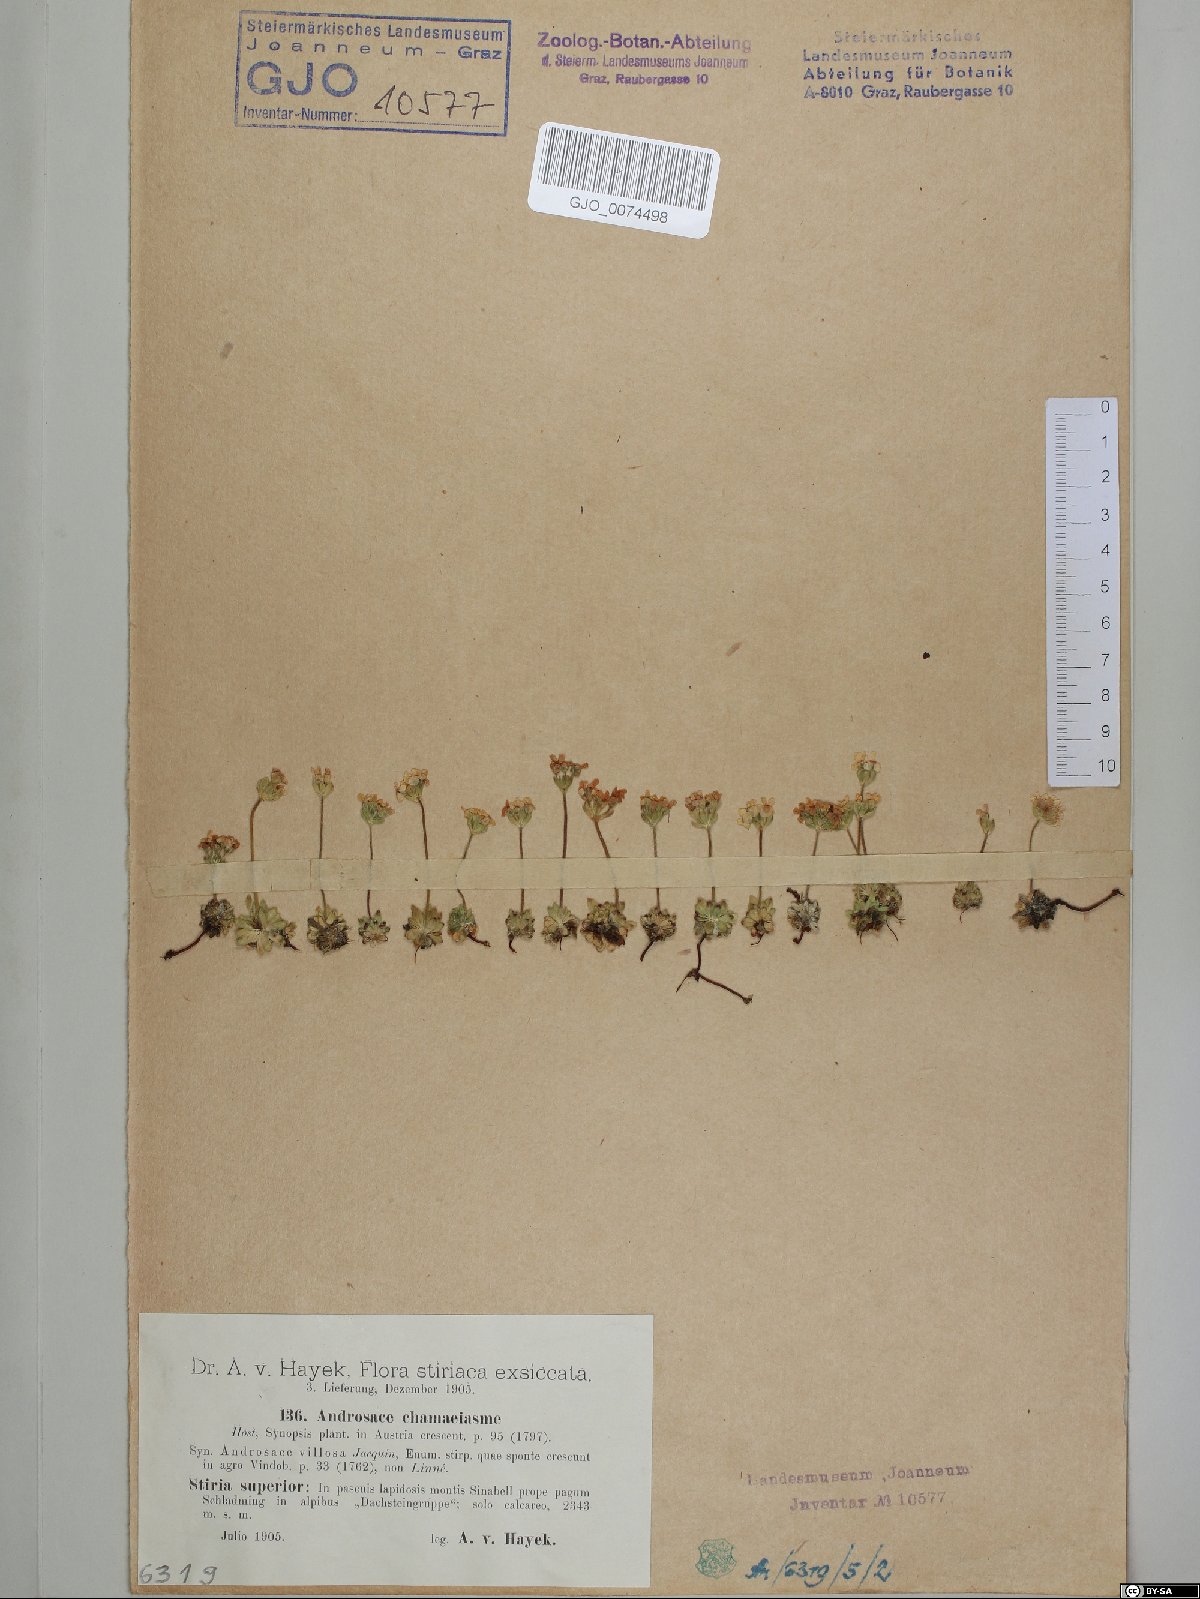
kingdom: Plantae
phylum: Tracheophyta
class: Magnoliopsida
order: Ericales
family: Primulaceae
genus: Androsace
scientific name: Androsace chamaejasme
